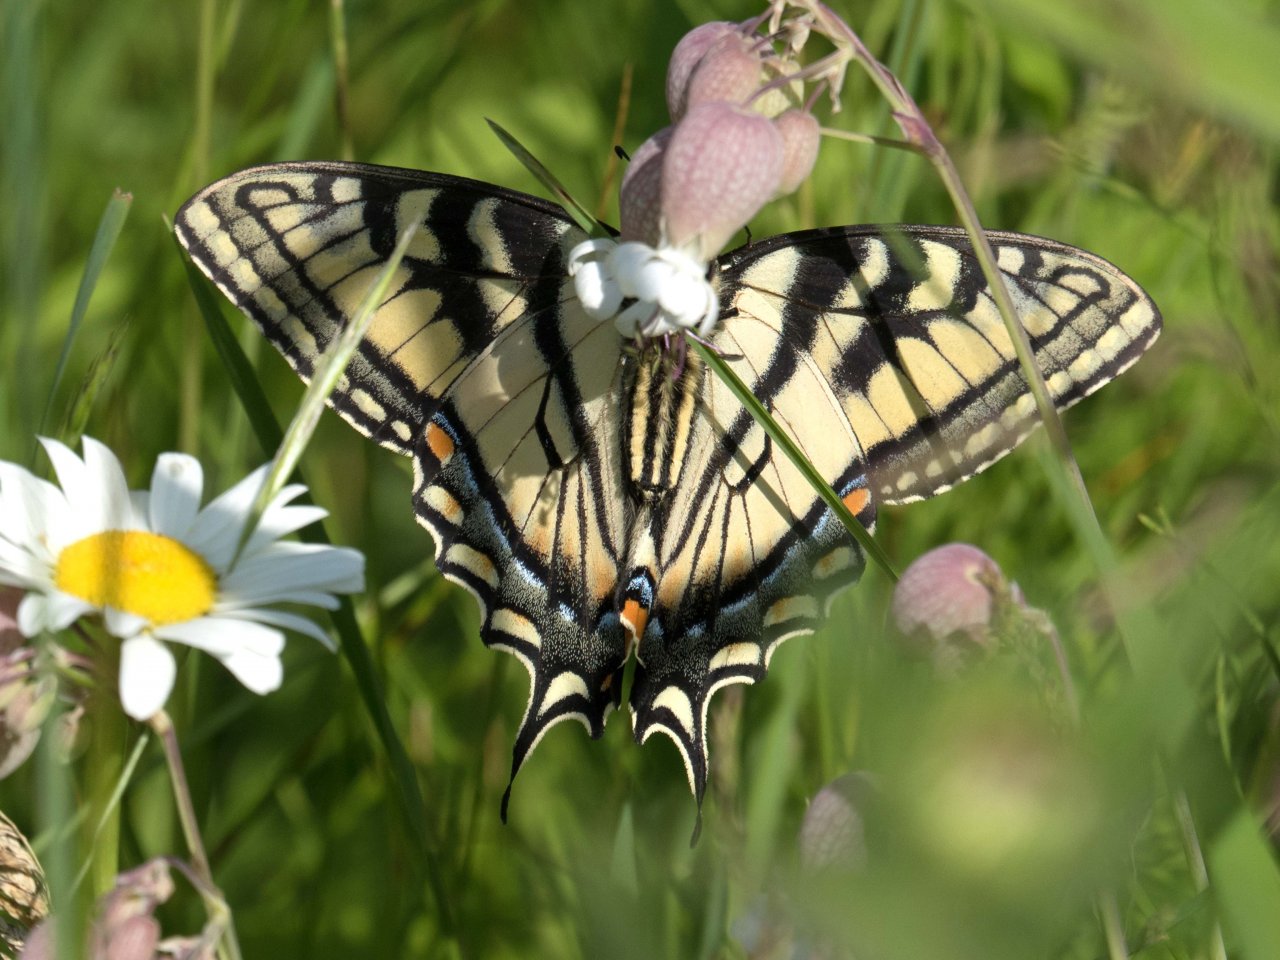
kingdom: Animalia
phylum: Arthropoda
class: Insecta
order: Lepidoptera
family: Papilionidae
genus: Pterourus
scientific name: Pterourus canadensis
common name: Canadian Tiger Swallowtail
